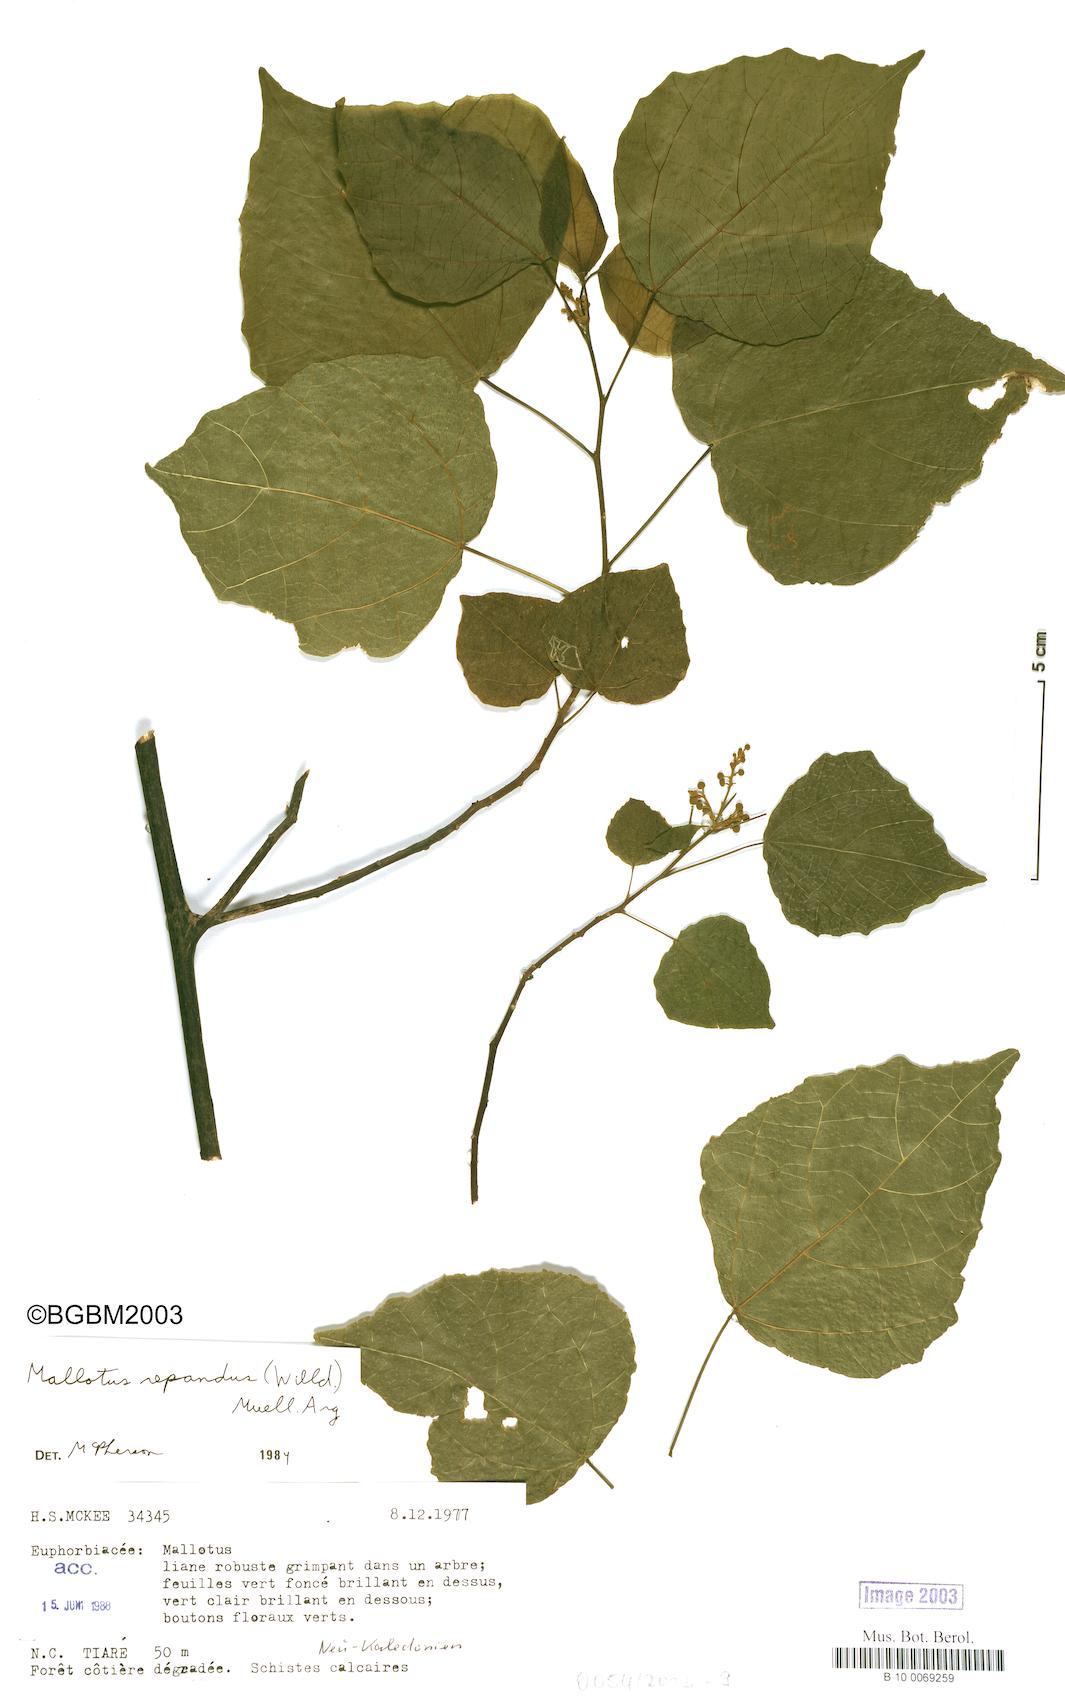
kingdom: Plantae
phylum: Tracheophyta
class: Magnoliopsida
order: Malpighiales
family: Euphorbiaceae
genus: Mallotus
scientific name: Mallotus repandus
